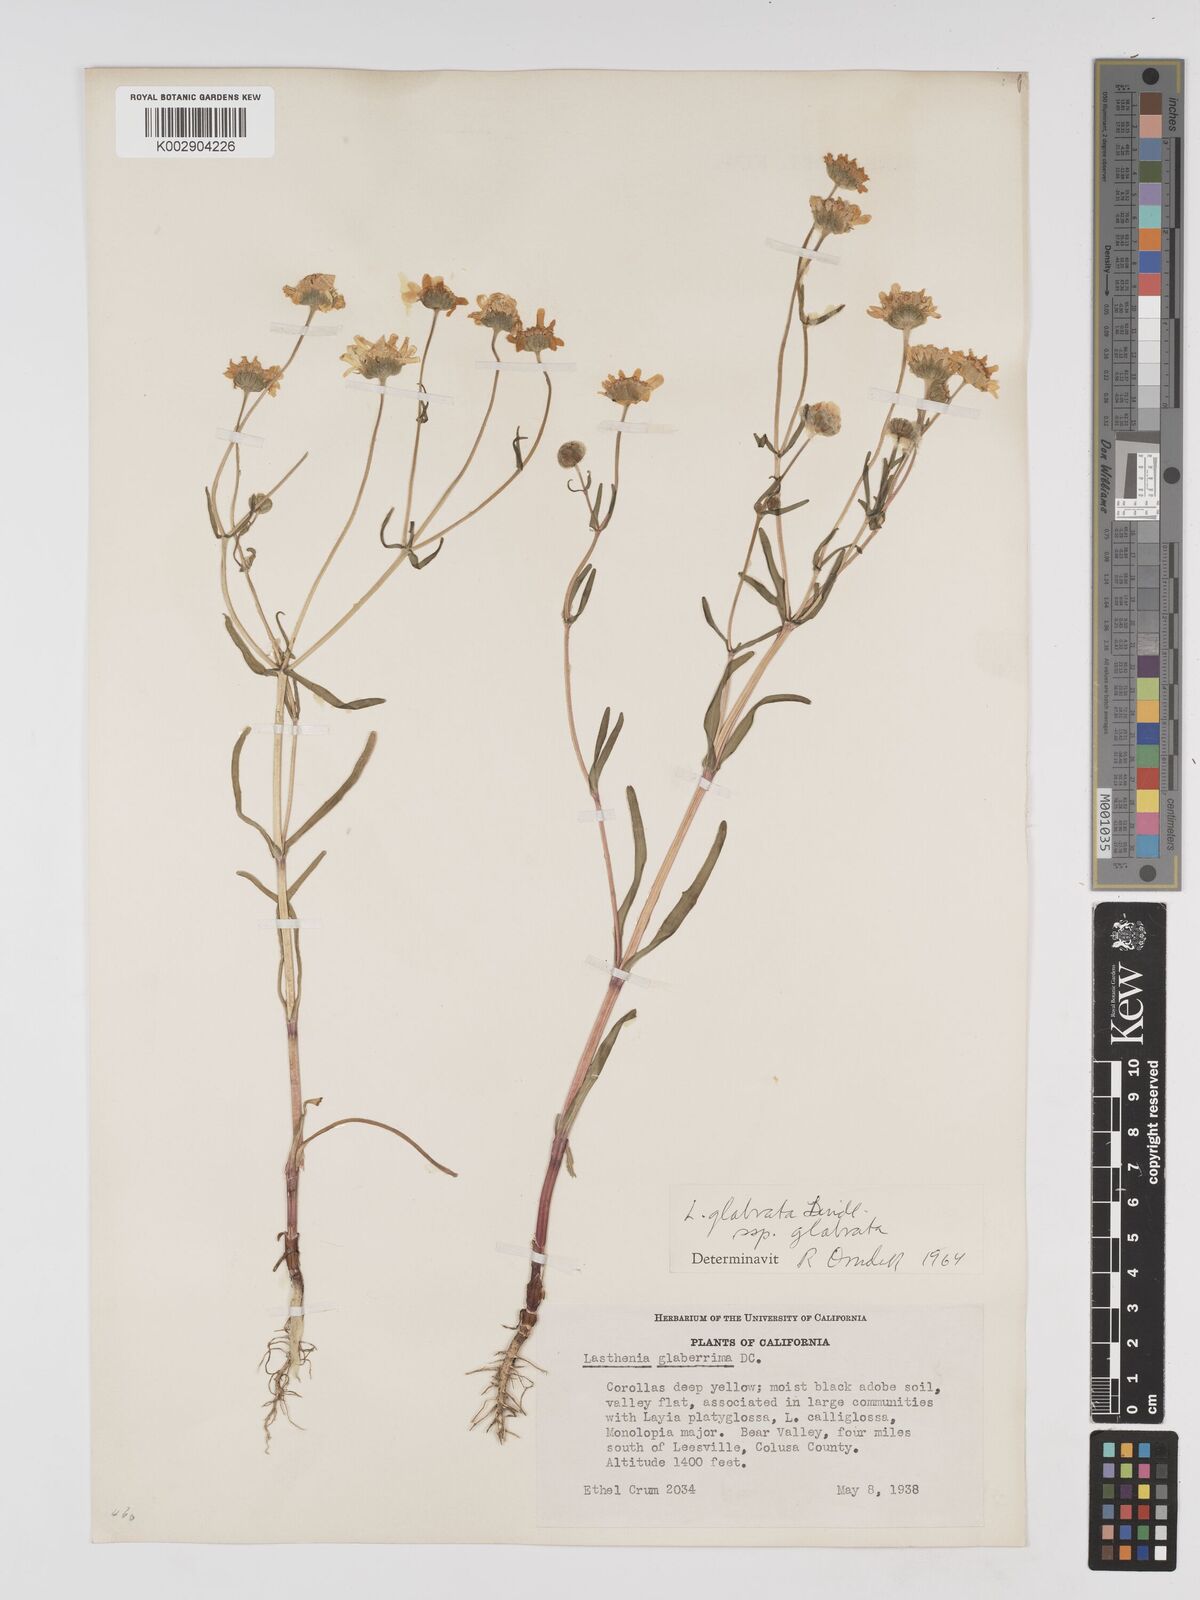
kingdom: Plantae
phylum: Tracheophyta
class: Magnoliopsida
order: Asterales
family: Asteraceae
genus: Lasthenia
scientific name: Lasthenia glabrata
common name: Yellow-ray lasthenia
